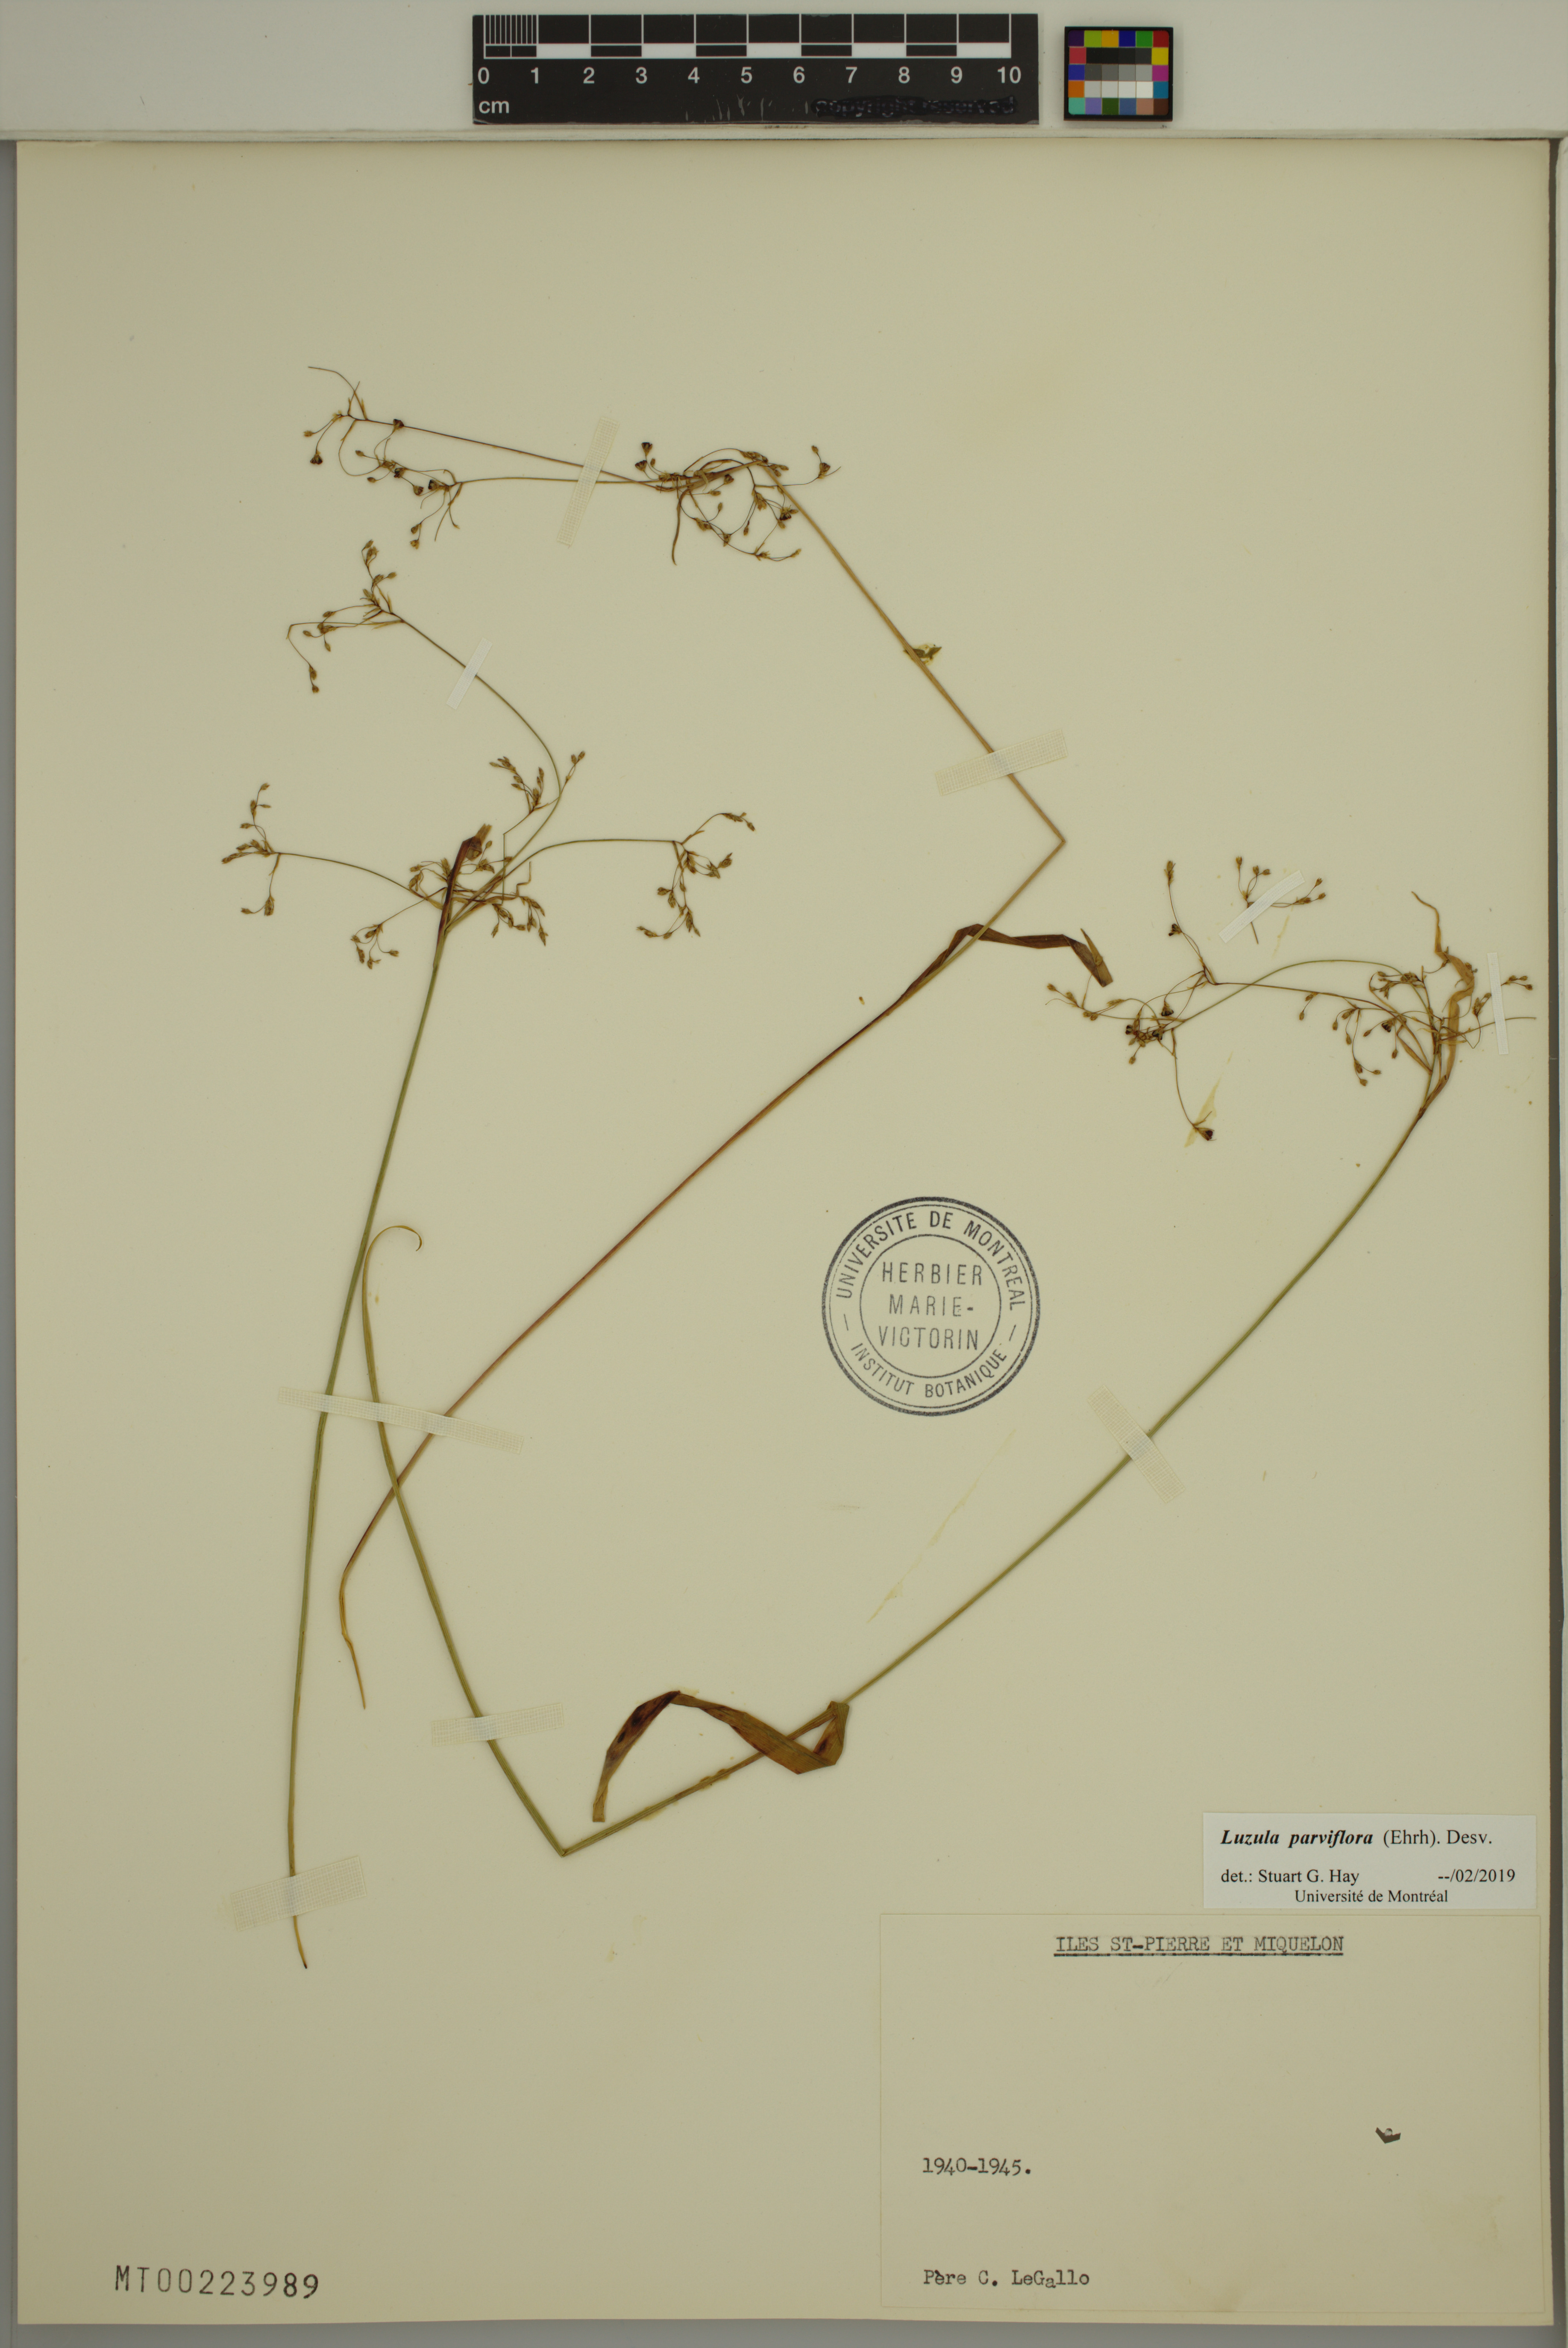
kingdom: Plantae
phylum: Tracheophyta
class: Liliopsida
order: Poales
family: Juncaceae
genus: Luzula
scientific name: Luzula parviflora
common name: Millet woodrush
